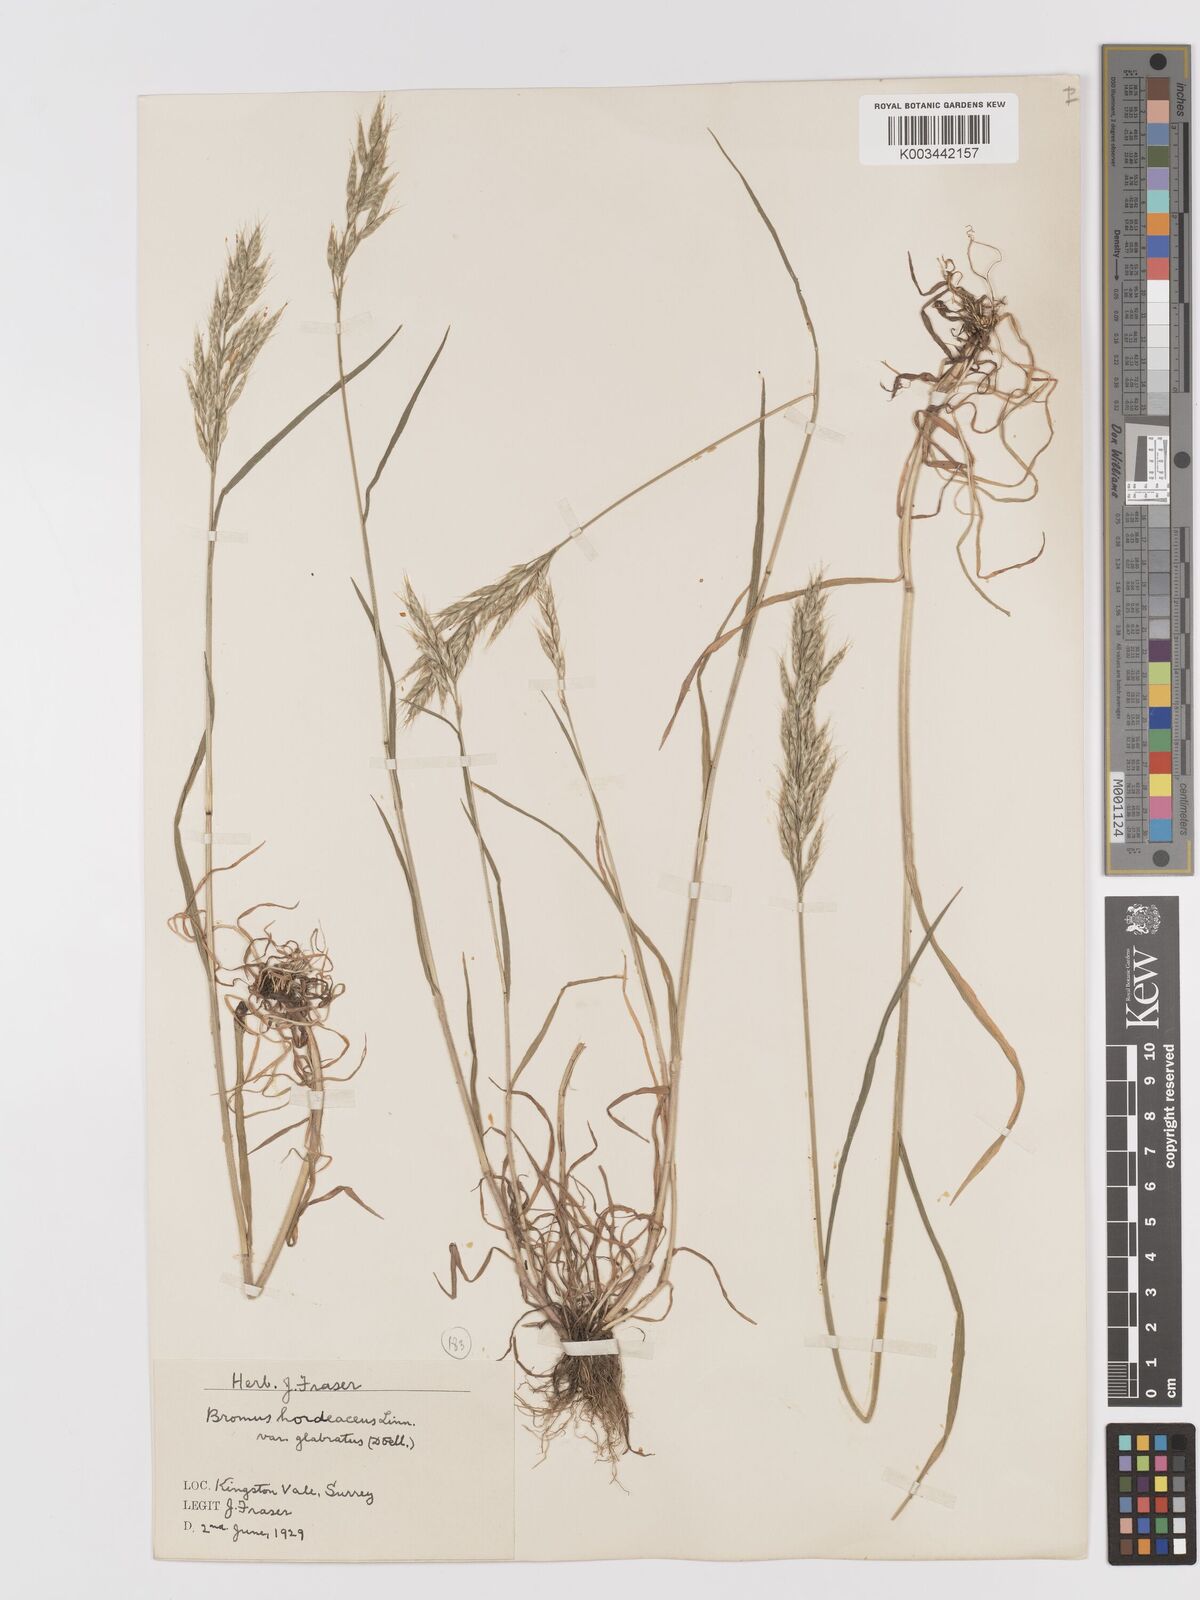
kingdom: Plantae
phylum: Tracheophyta
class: Liliopsida
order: Poales
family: Poaceae
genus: Bromus
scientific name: Bromus lepidus
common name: Slender soft-brome
